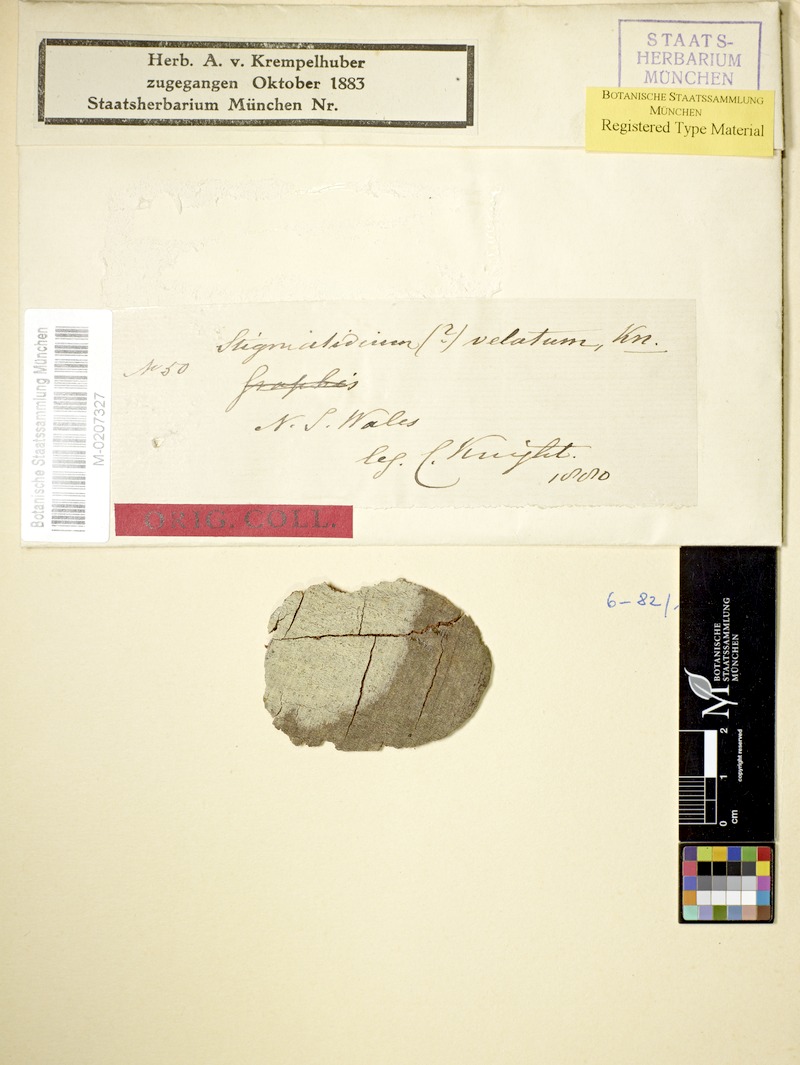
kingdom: Fungi
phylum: Ascomycota
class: Arthoniomycetes
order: Arthoniales
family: Roccellaceae
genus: Enterodictyon
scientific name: Enterodictyon velatum
